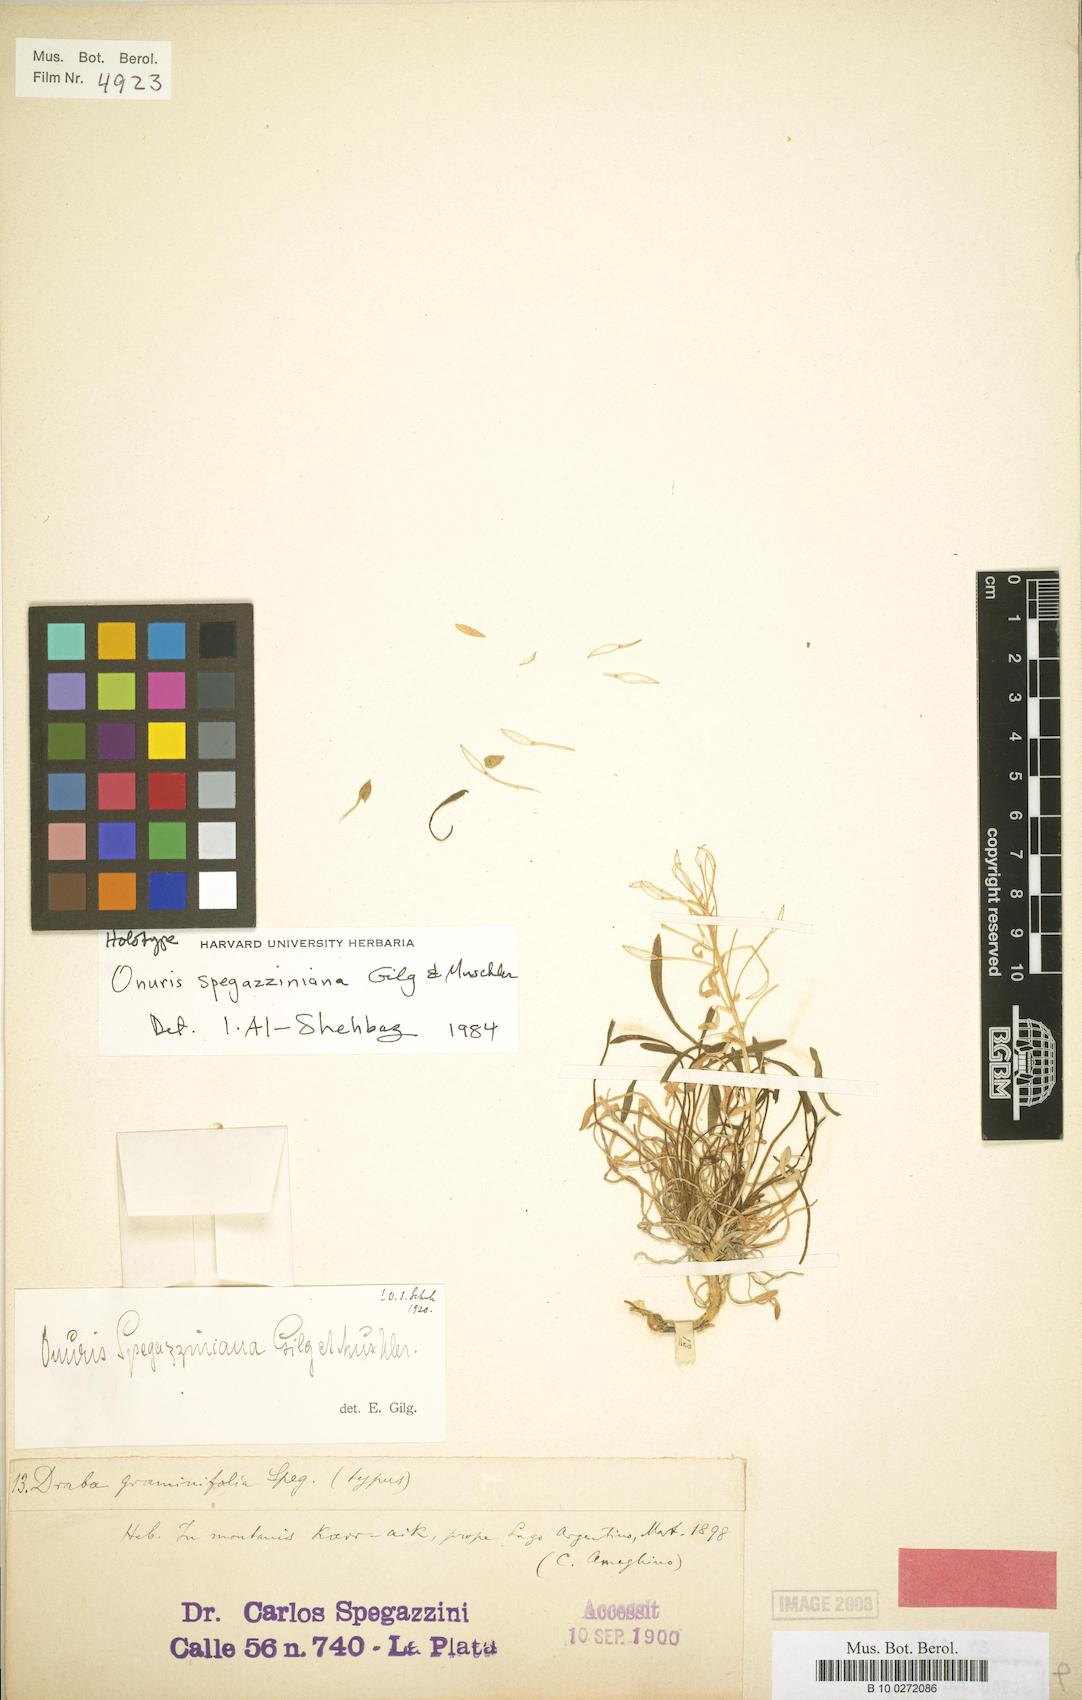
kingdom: Plantae
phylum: Tracheophyta
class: Magnoliopsida
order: Brassicales
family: Brassicaceae
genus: Onuris
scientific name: Onuris spegazziniana
